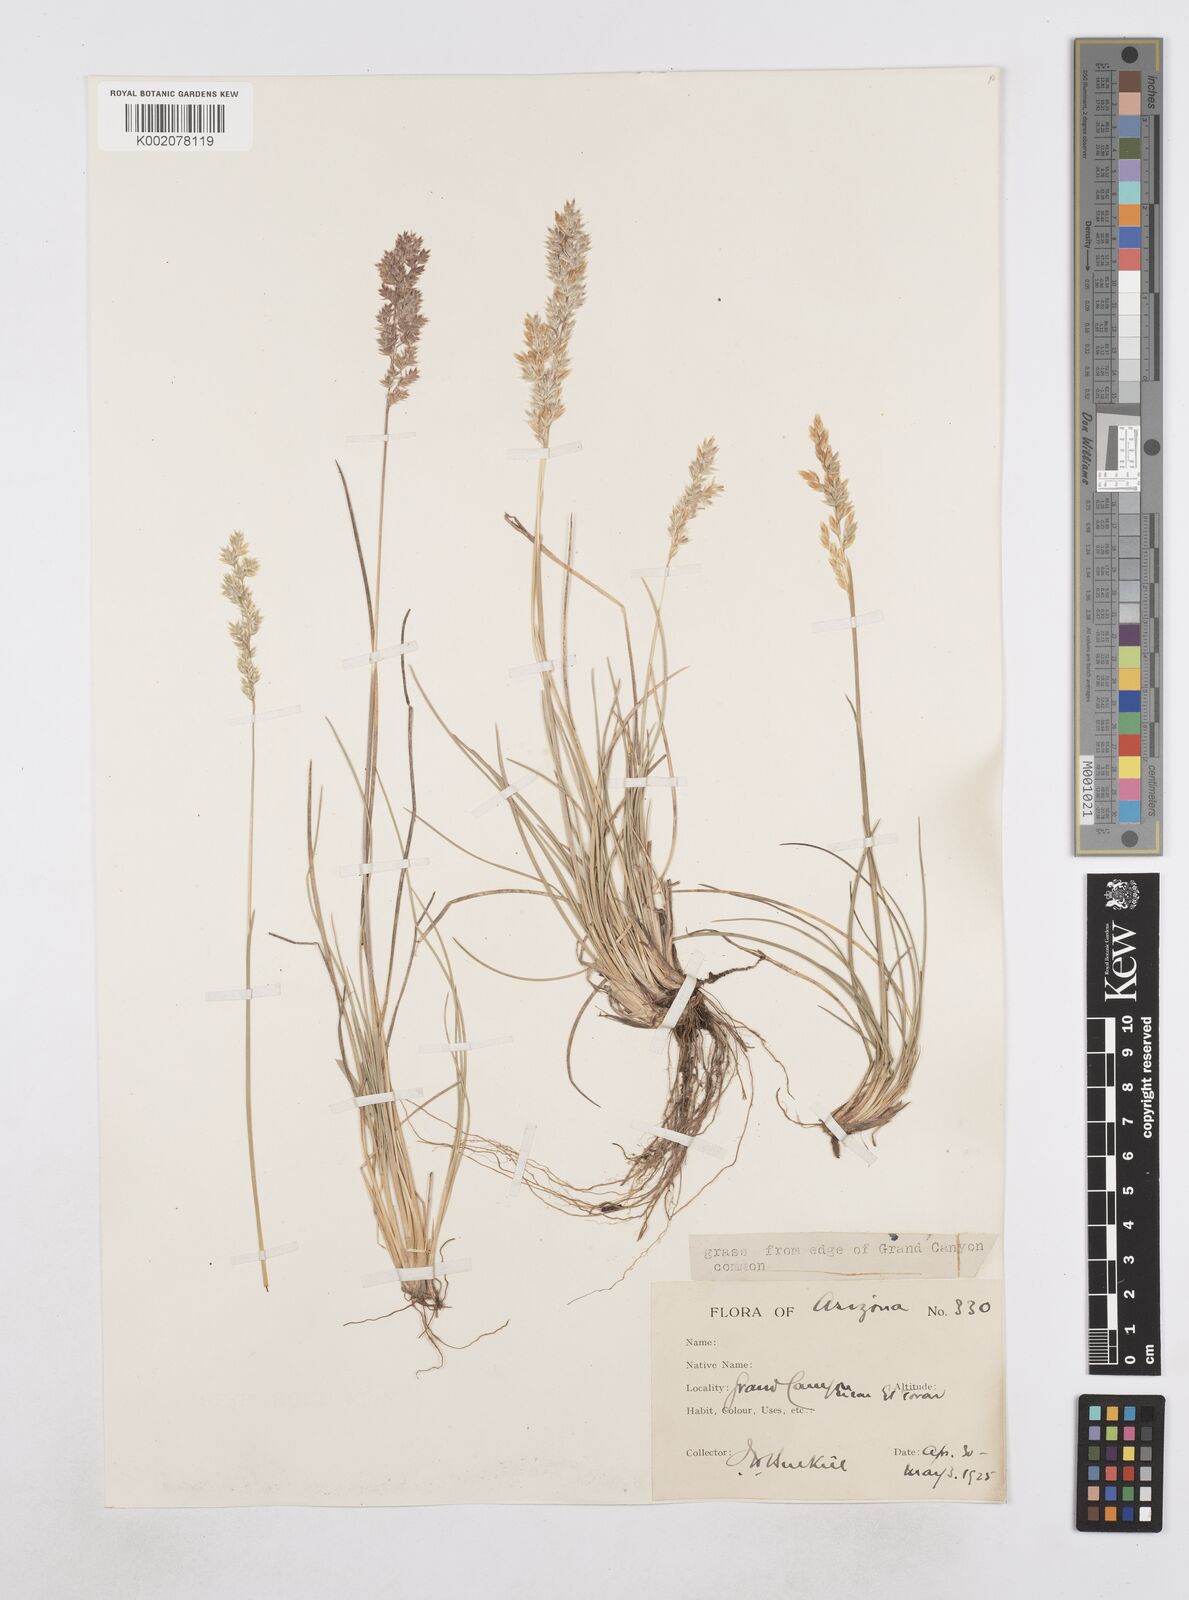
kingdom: Plantae
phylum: Tracheophyta
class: Liliopsida
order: Poales
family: Poaceae
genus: Poa
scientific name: Poa
